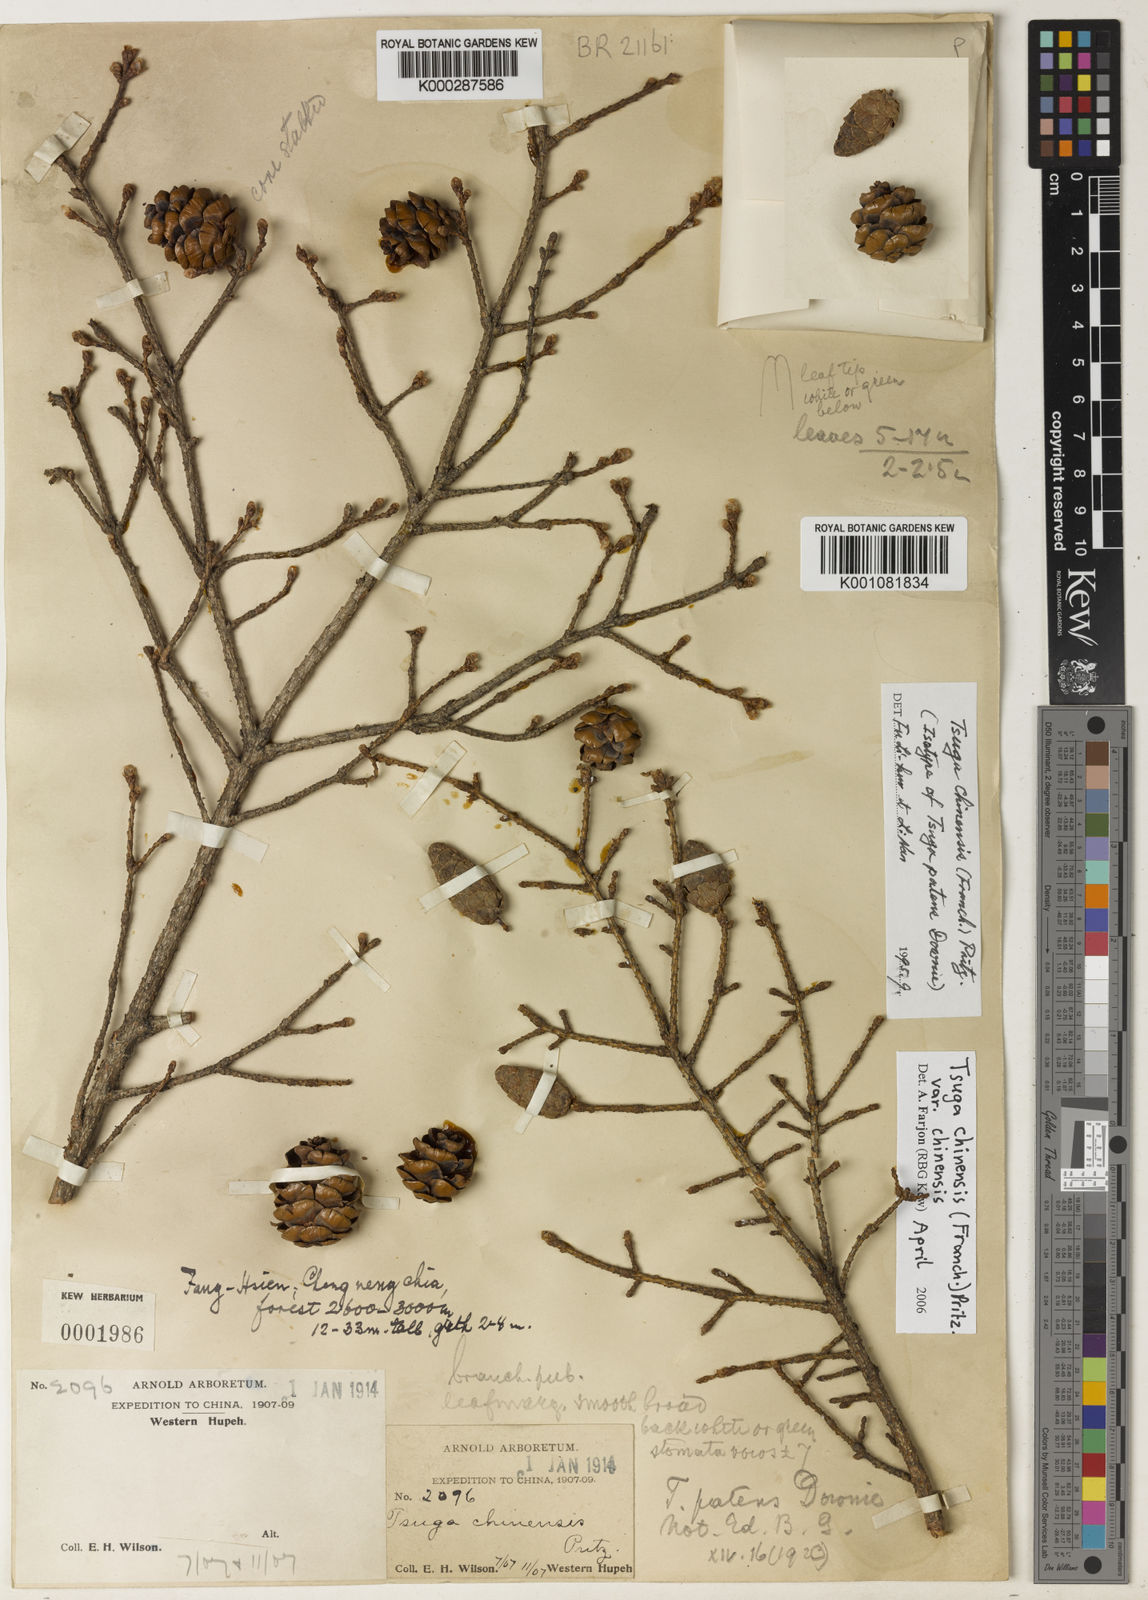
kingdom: Plantae
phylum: Tracheophyta
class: Pinopsida
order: Pinales
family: Pinaceae
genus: Tsuga
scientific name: Tsuga chinensis
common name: Chinese hemlock
